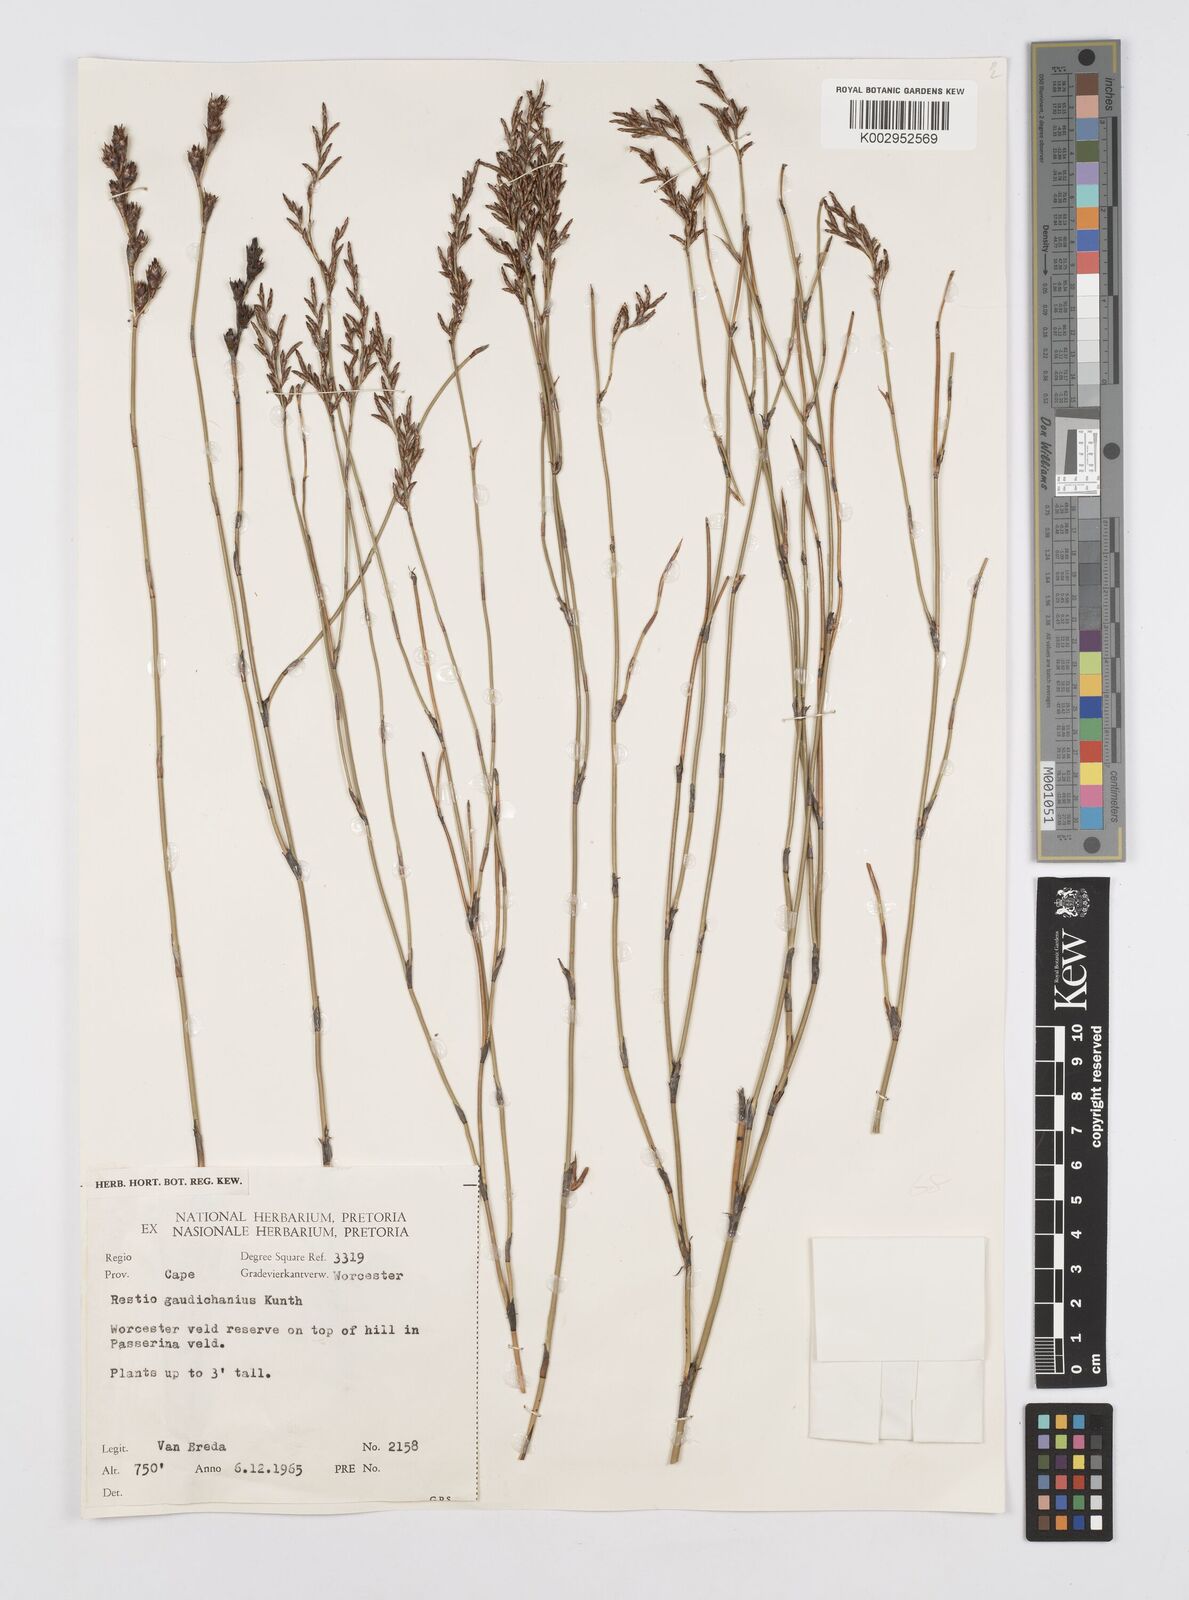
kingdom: Plantae
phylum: Tracheophyta
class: Liliopsida
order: Poales
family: Restionaceae
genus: Restio
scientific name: Restio luxurians
